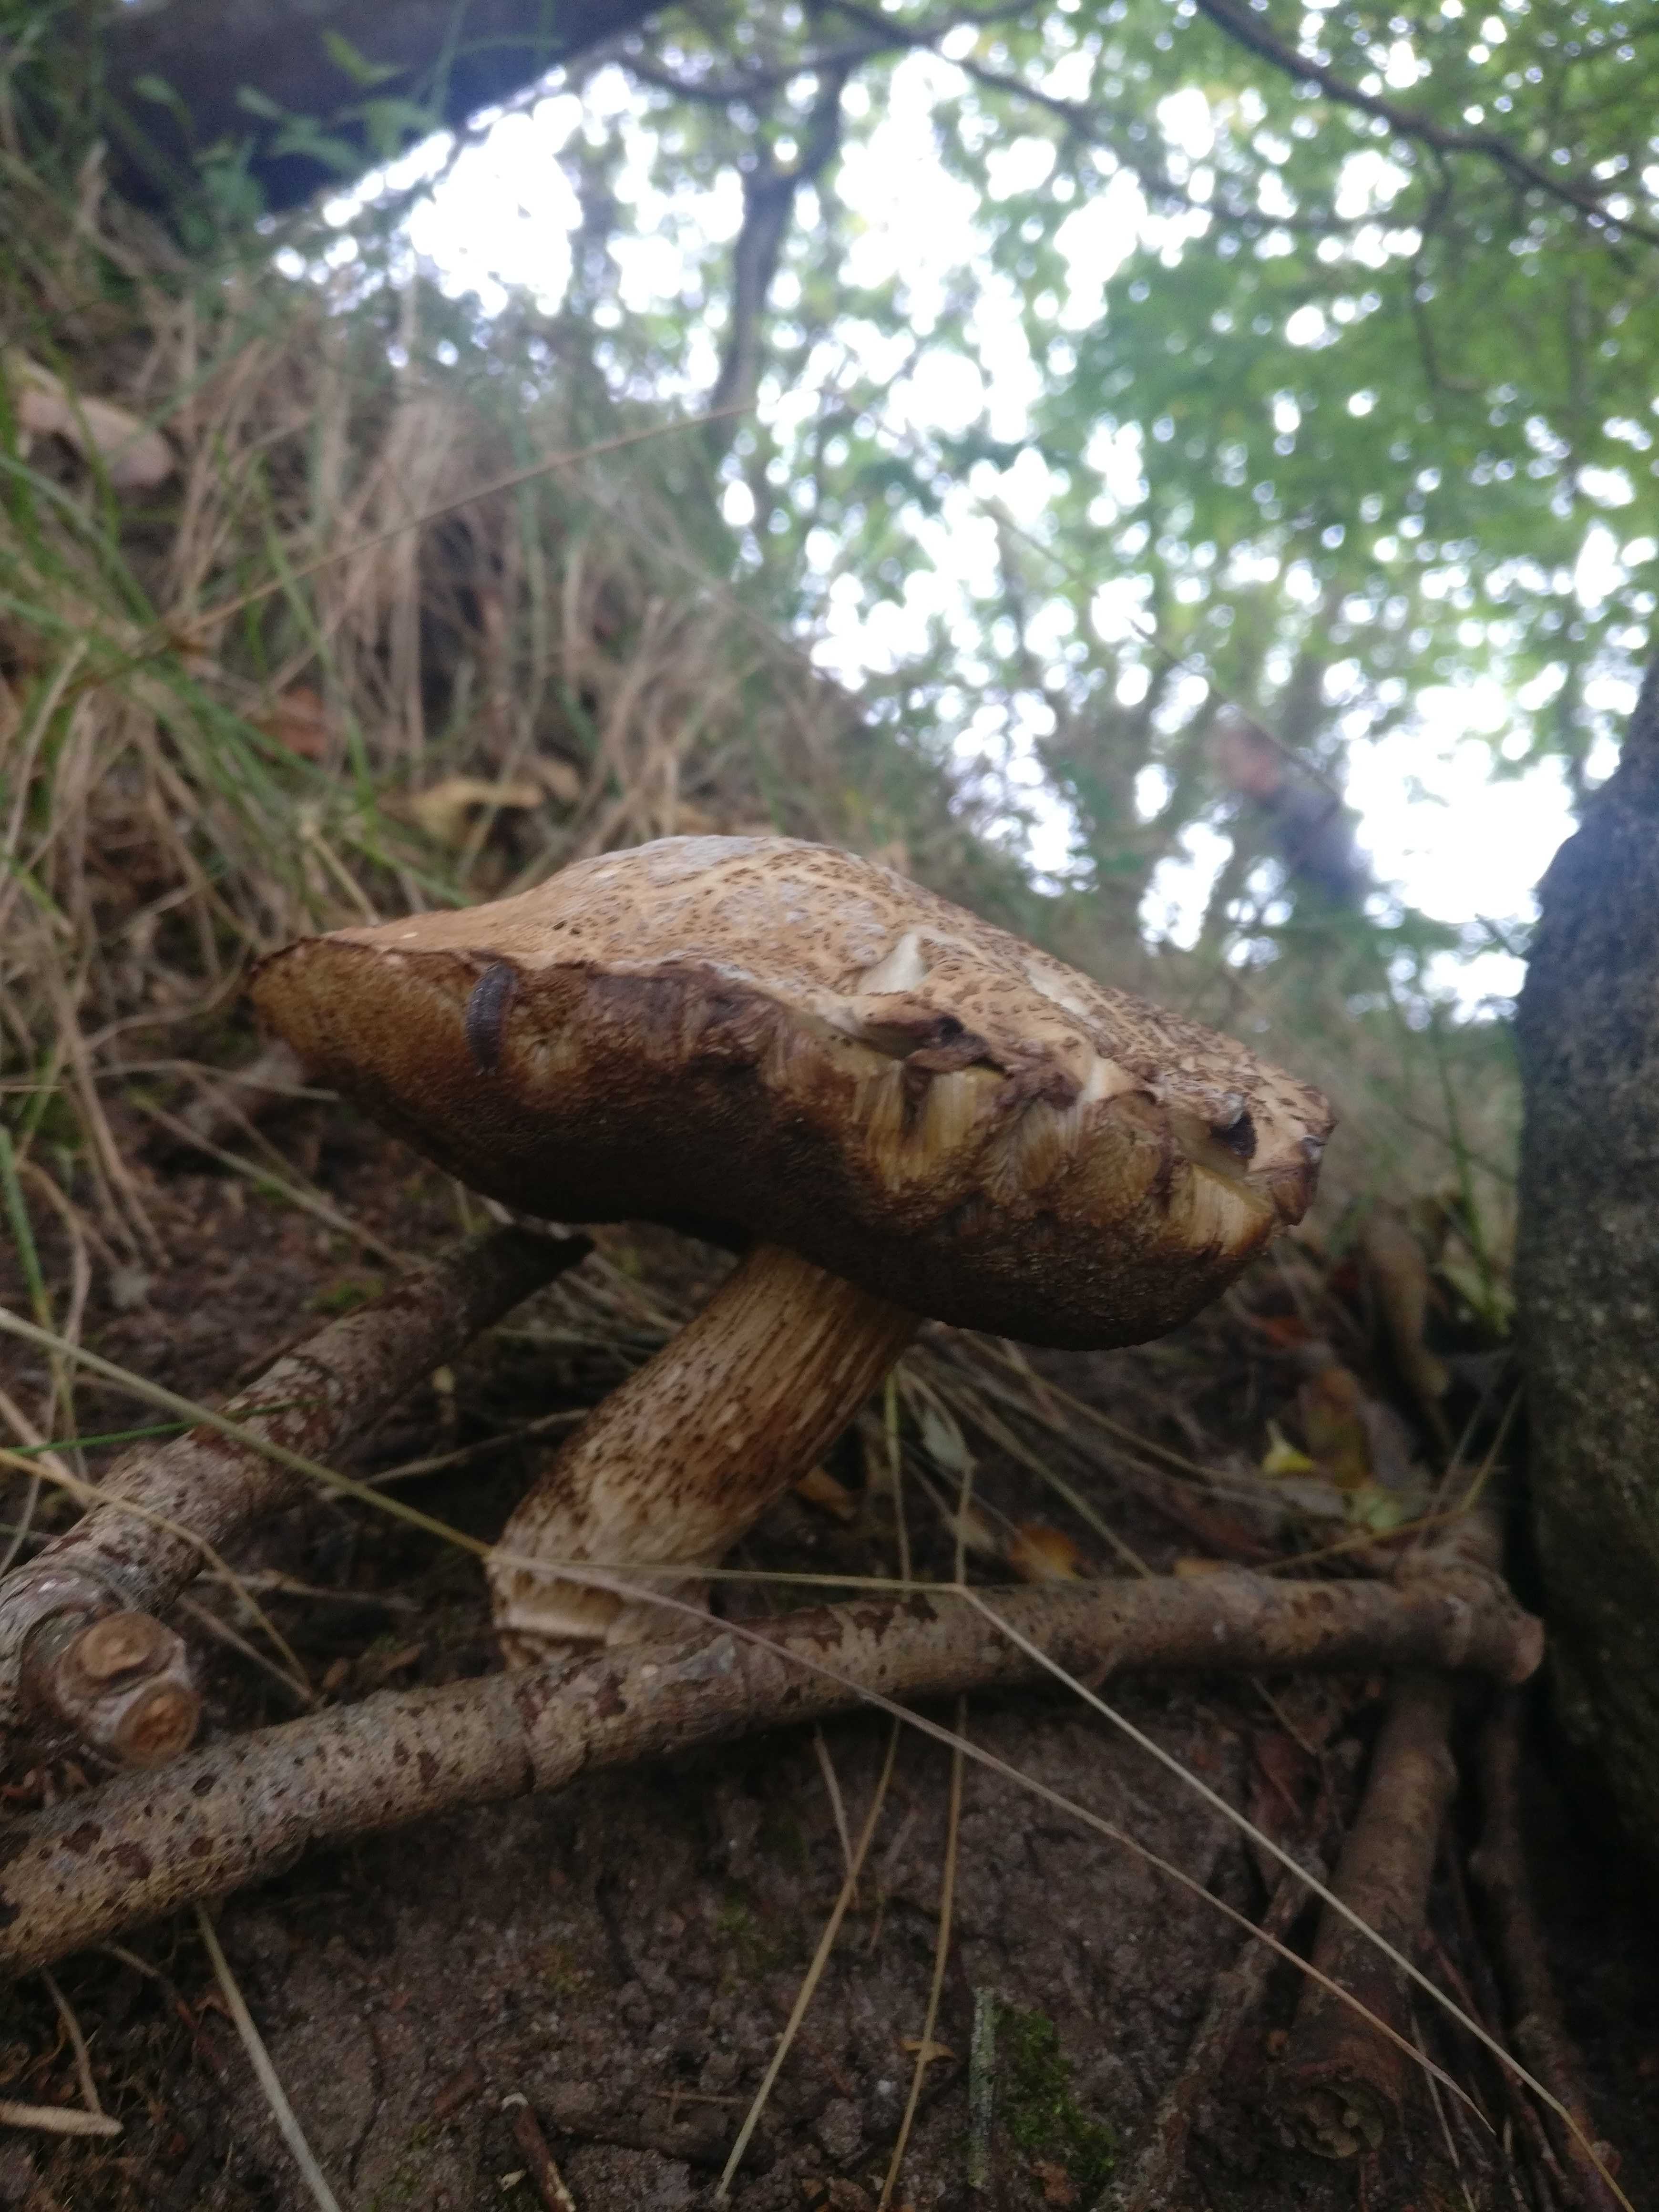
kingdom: Fungi
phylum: Basidiomycota
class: Agaricomycetes
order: Boletales
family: Boletaceae
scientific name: Boletaceae
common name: rørhatfamilien
